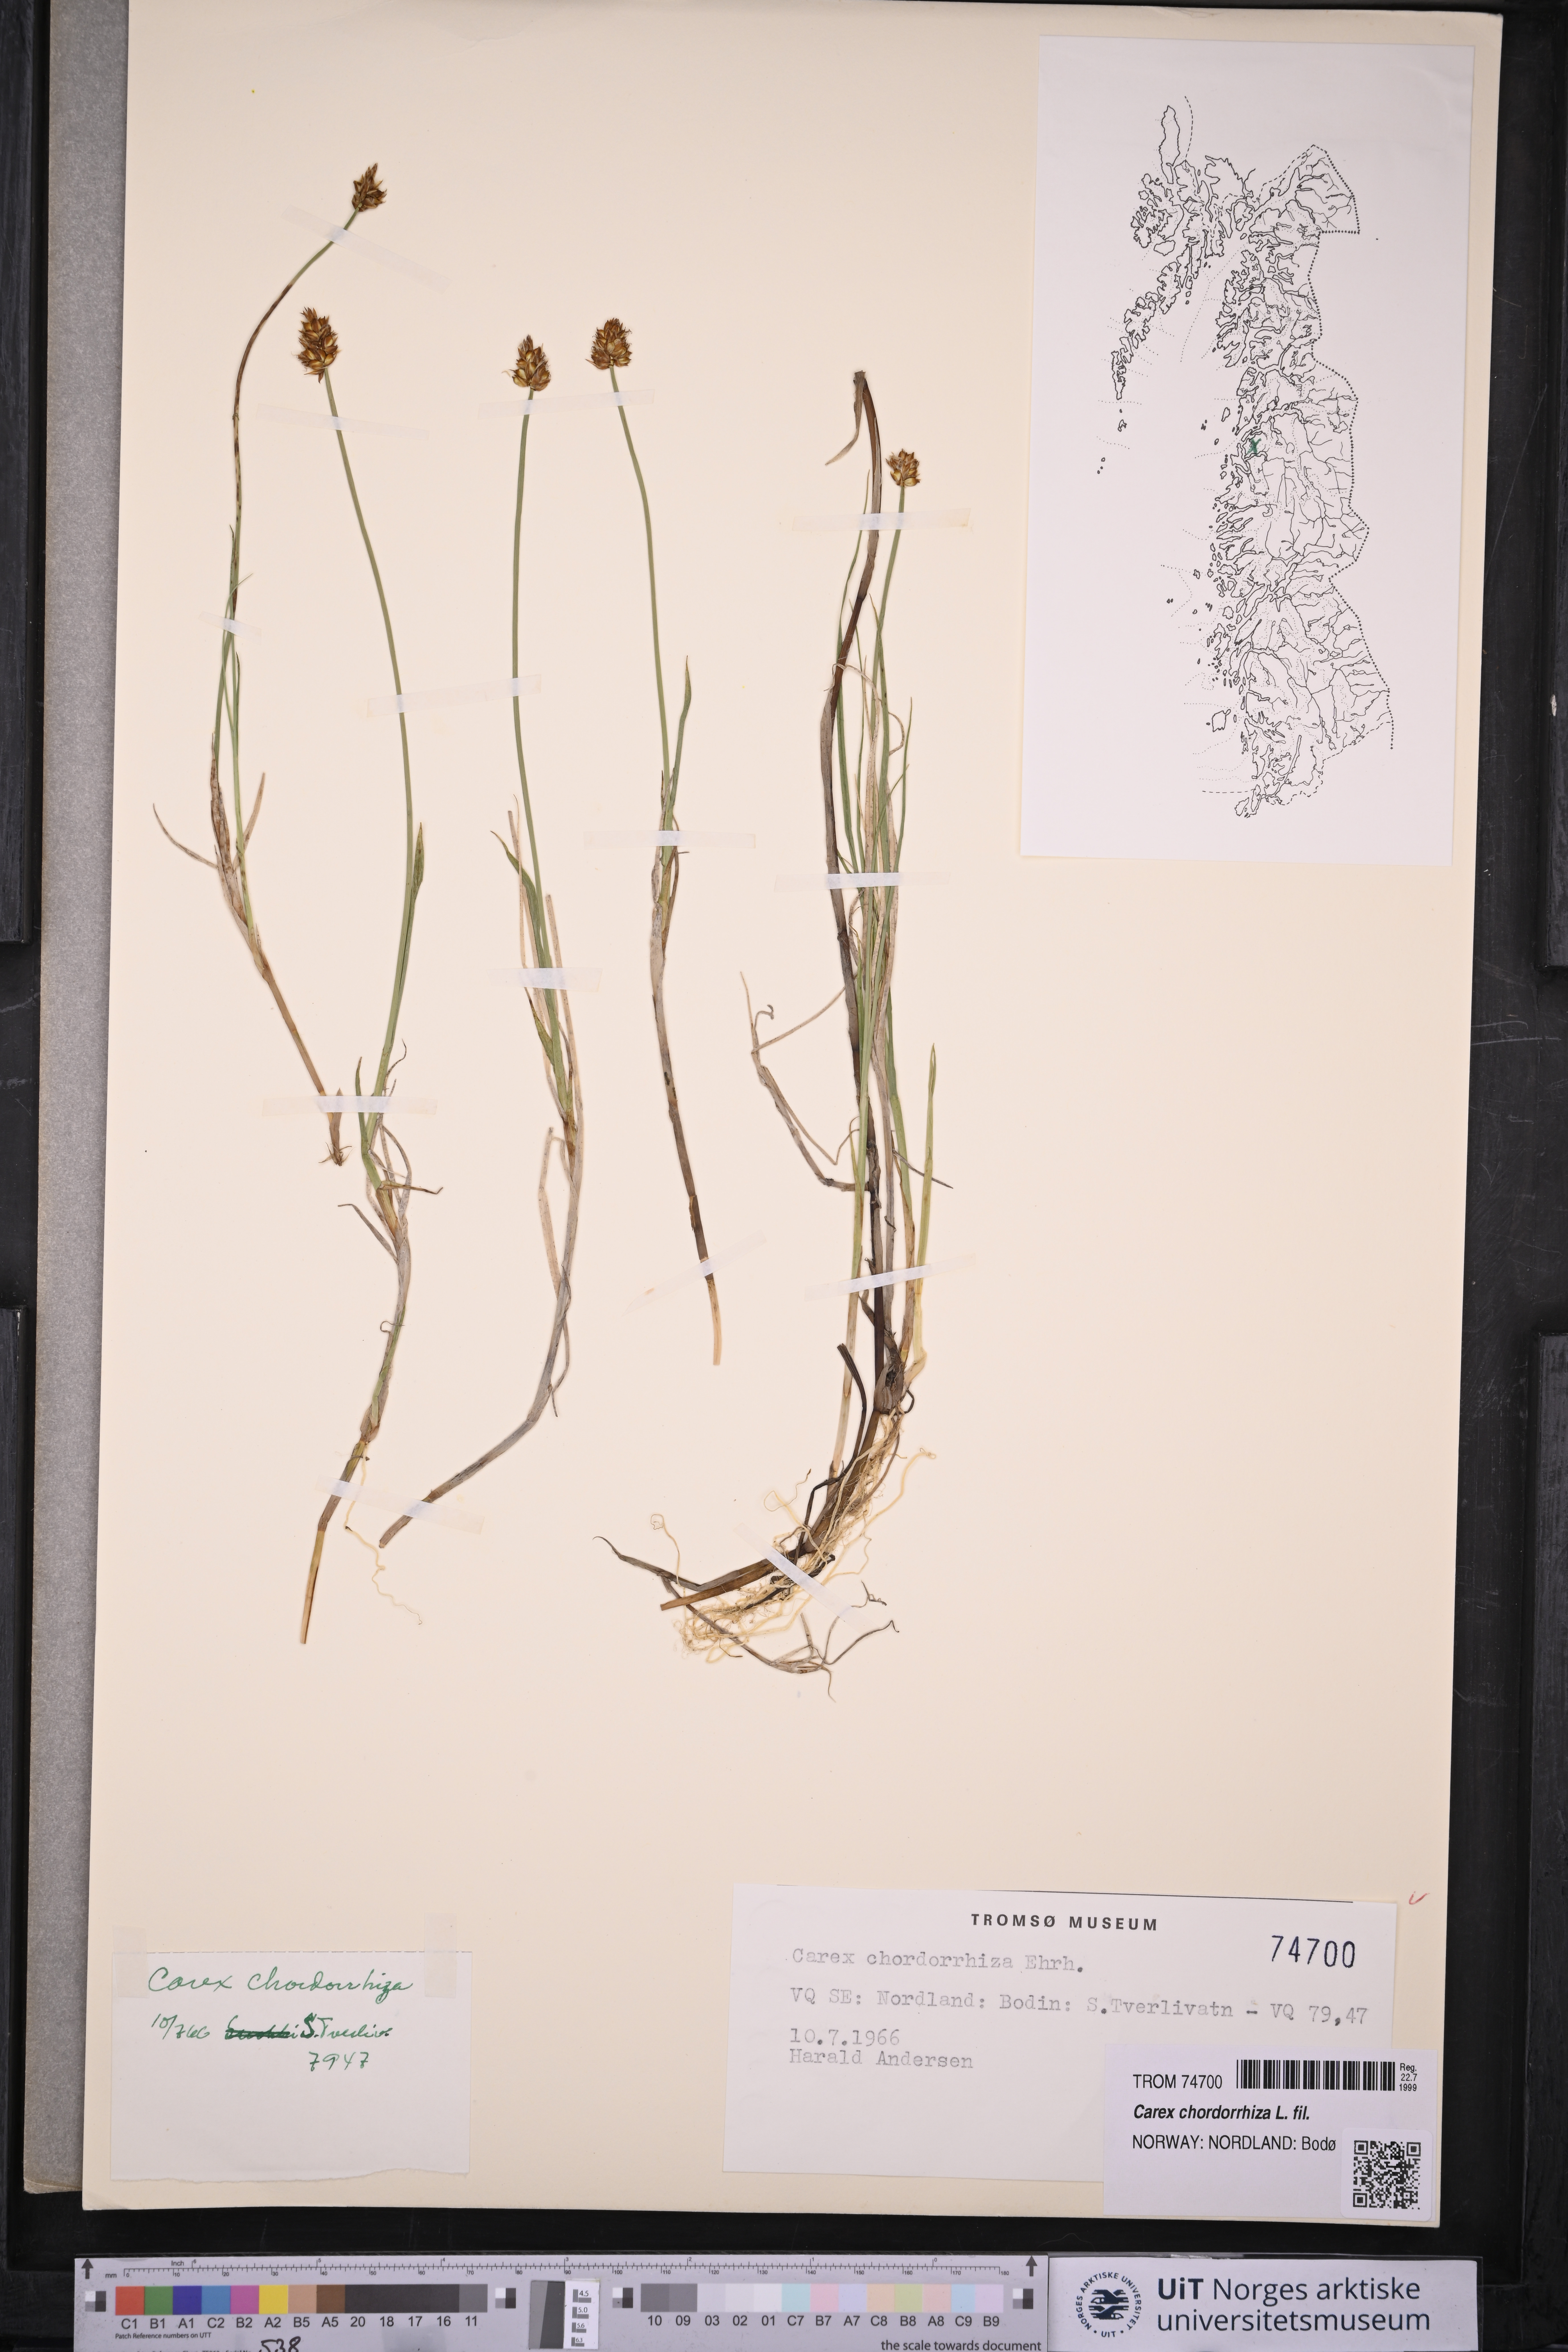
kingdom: Plantae
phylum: Tracheophyta
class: Liliopsida
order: Poales
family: Cyperaceae
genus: Carex
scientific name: Carex chordorrhiza
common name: String sedge
